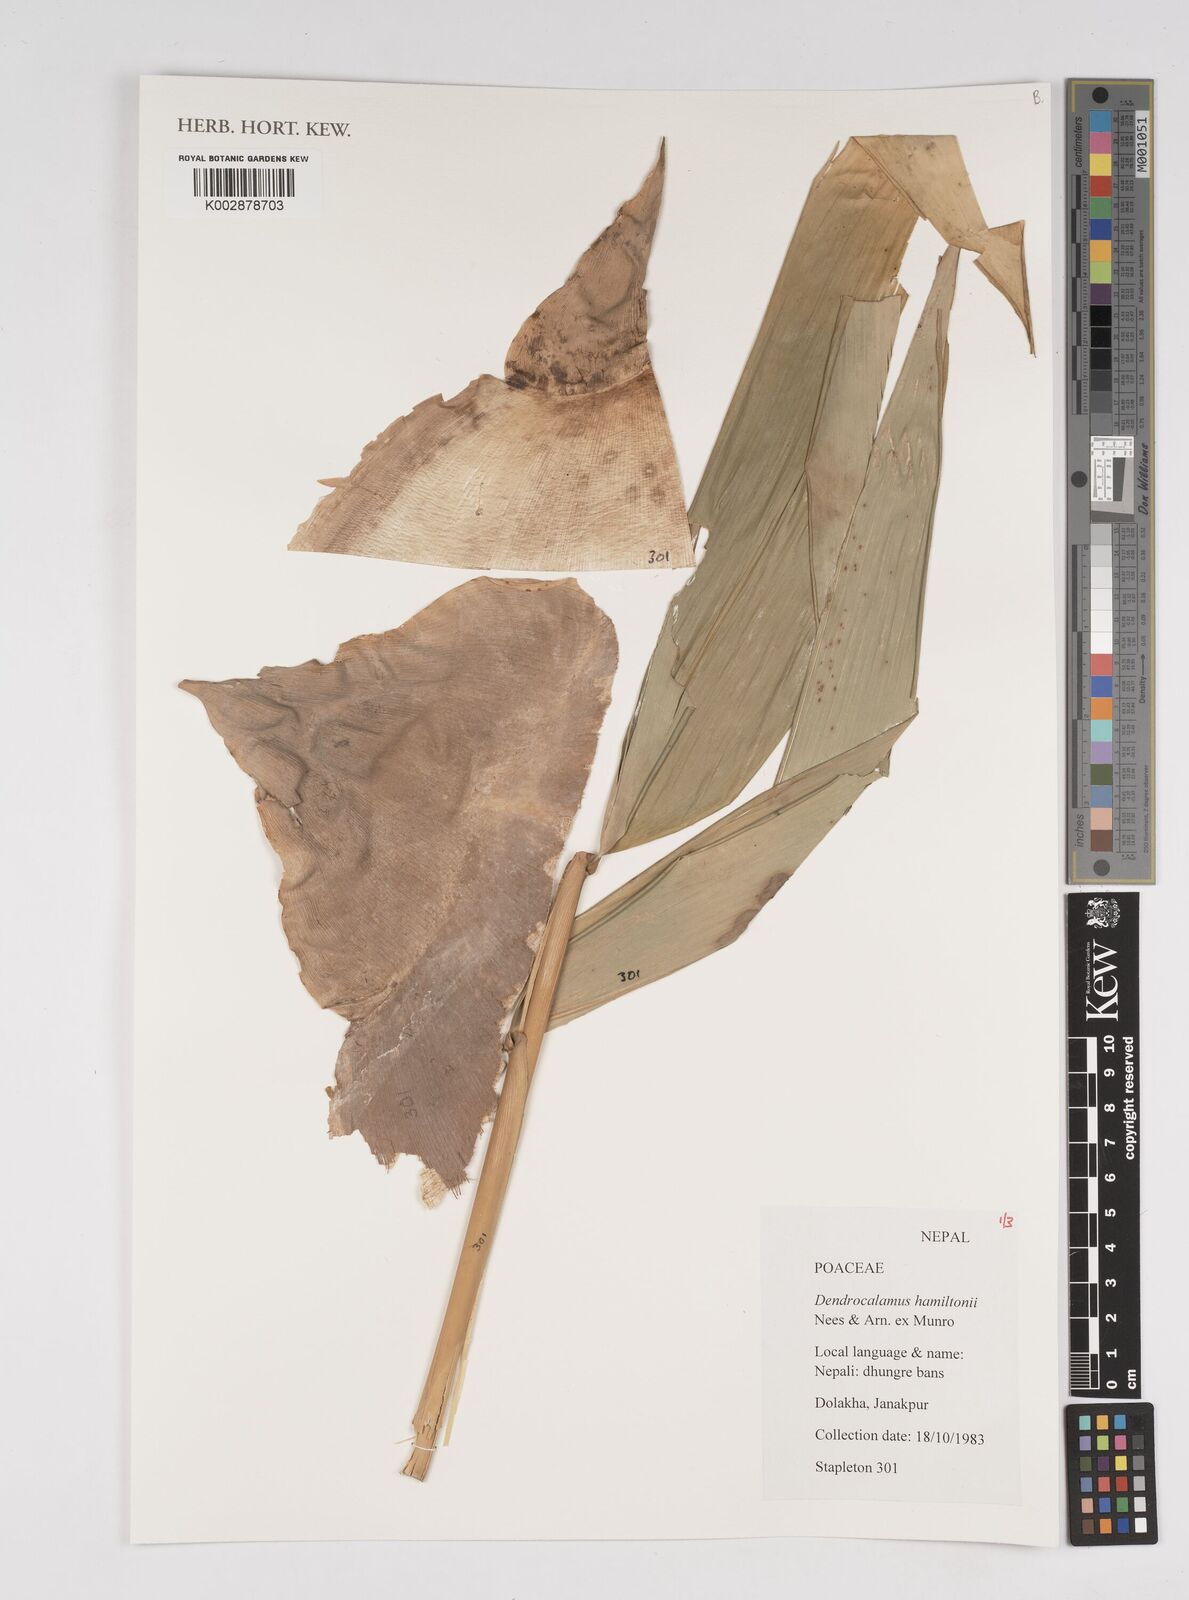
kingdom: Plantae
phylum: Tracheophyta
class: Liliopsida
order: Poales
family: Poaceae
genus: Dendrocalamus
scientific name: Dendrocalamus hamiltonii
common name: Tama bamboo
